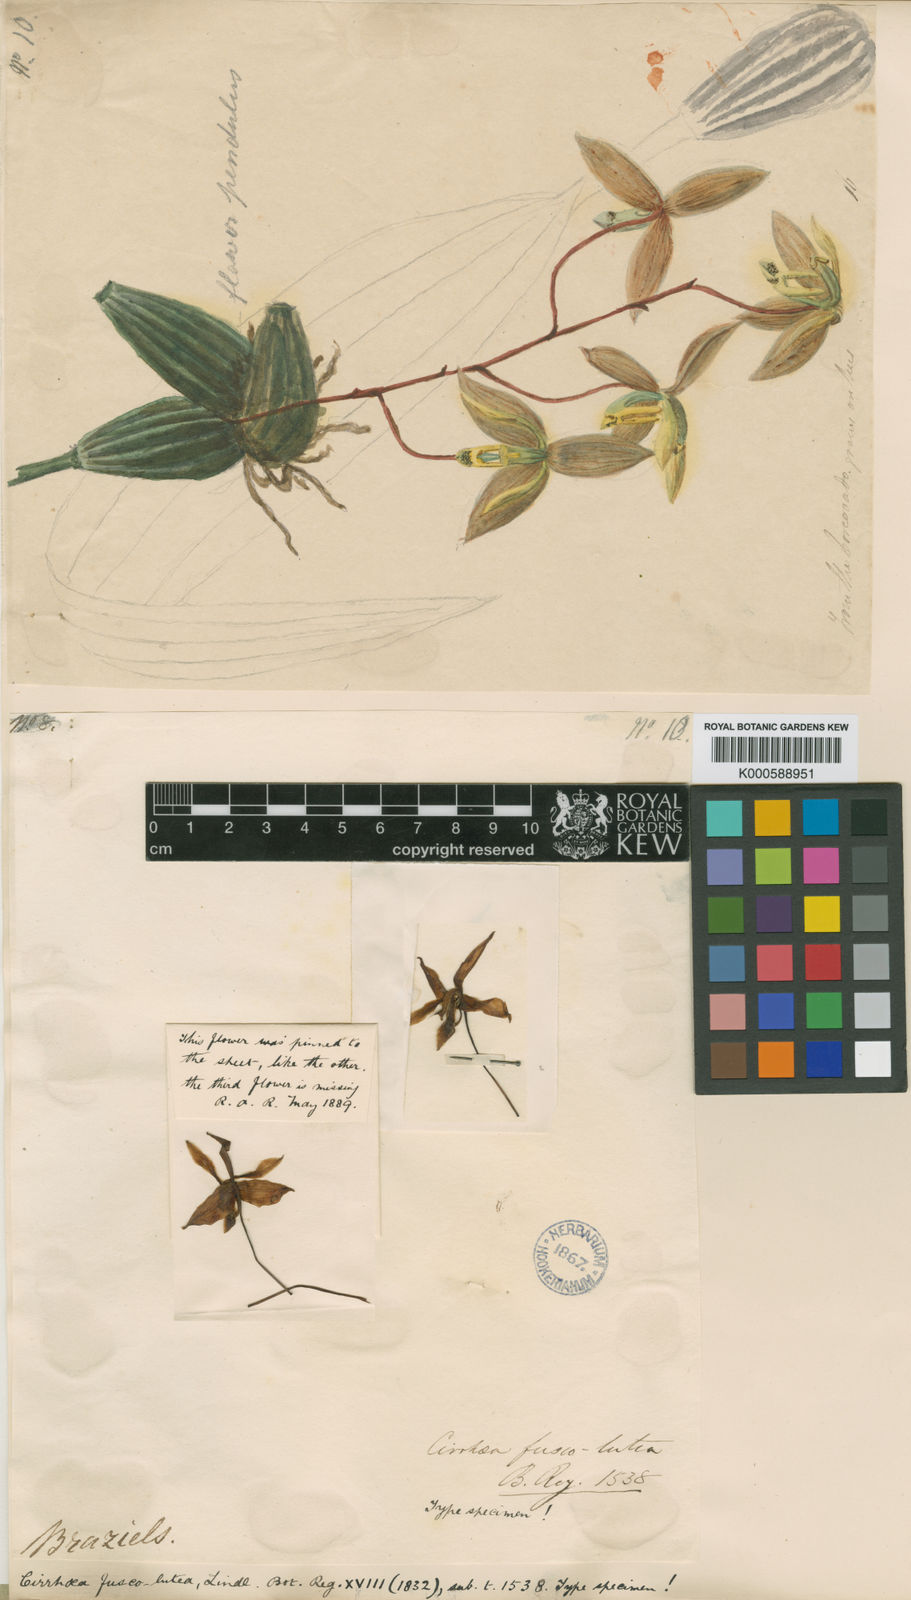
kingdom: Plantae
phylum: Tracheophyta
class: Liliopsida
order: Asparagales
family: Orchidaceae
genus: Cirrhaea
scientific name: Cirrhaea fuscolutea
